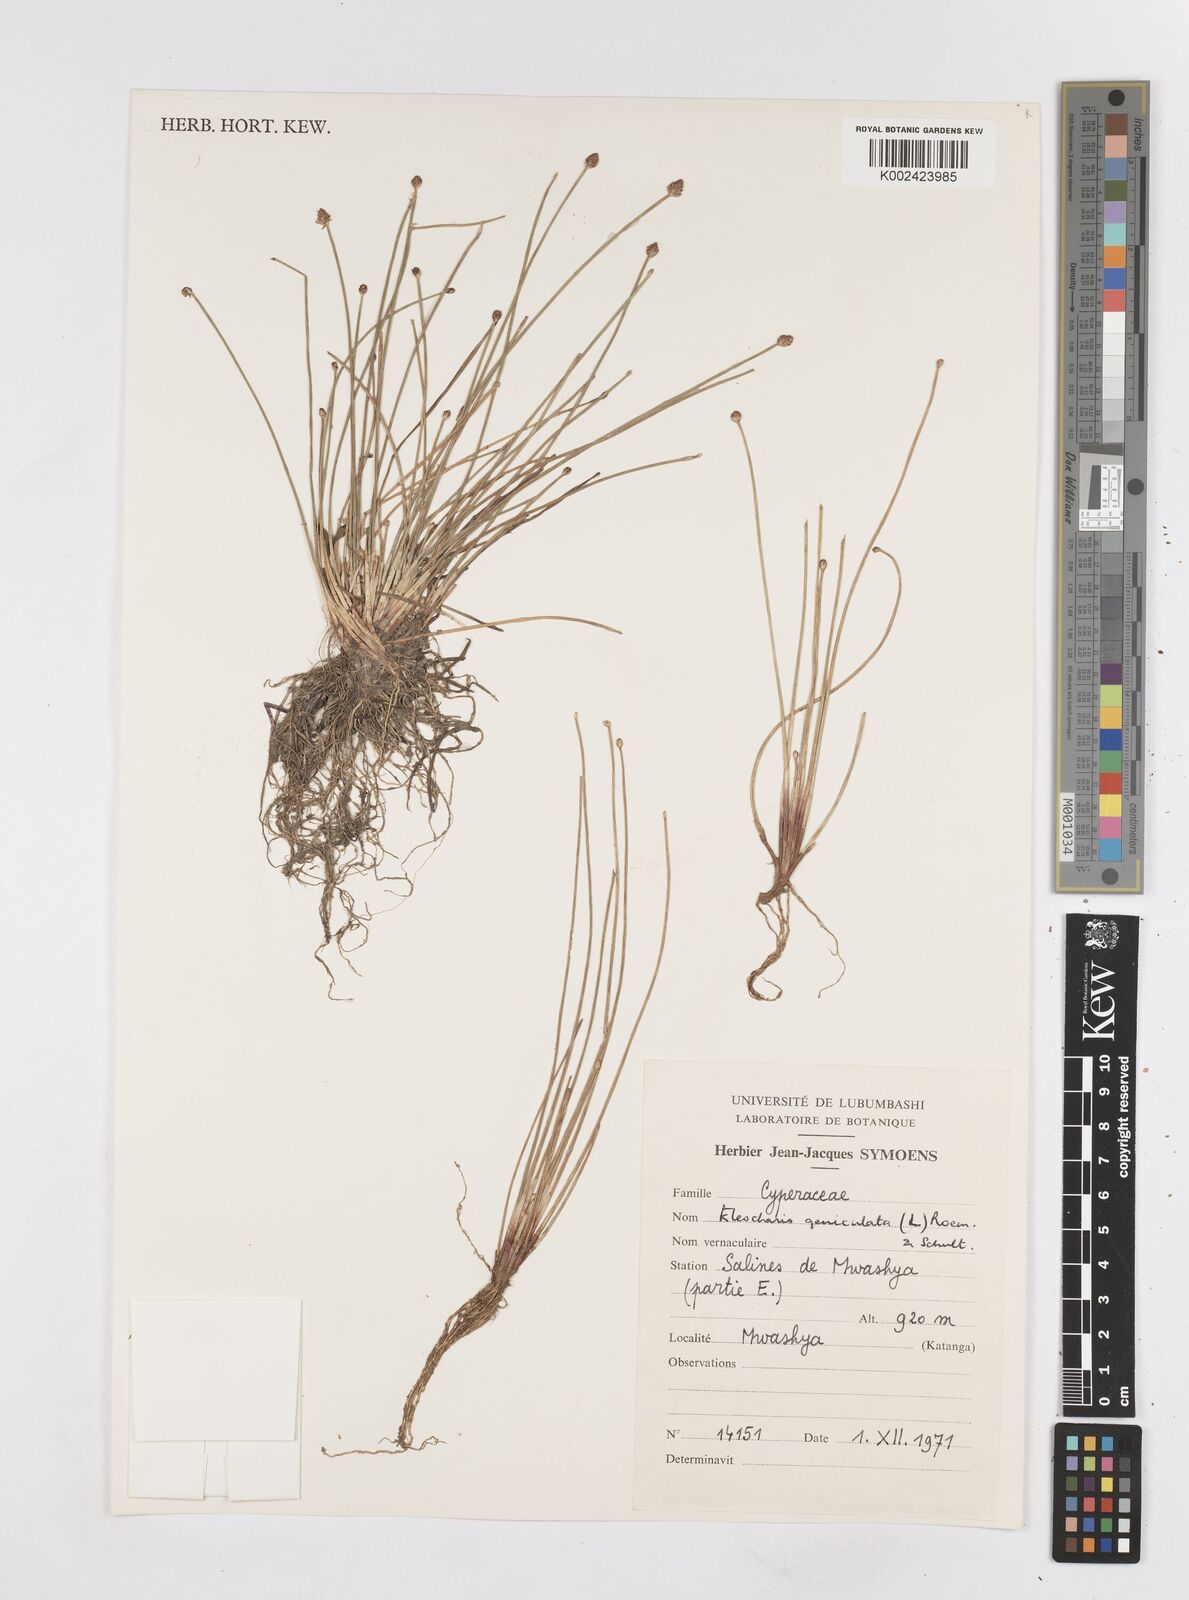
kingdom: Plantae
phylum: Tracheophyta
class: Liliopsida
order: Poales
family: Cyperaceae
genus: Eleocharis
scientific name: Eleocharis geniculata
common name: Canada spikesedge
